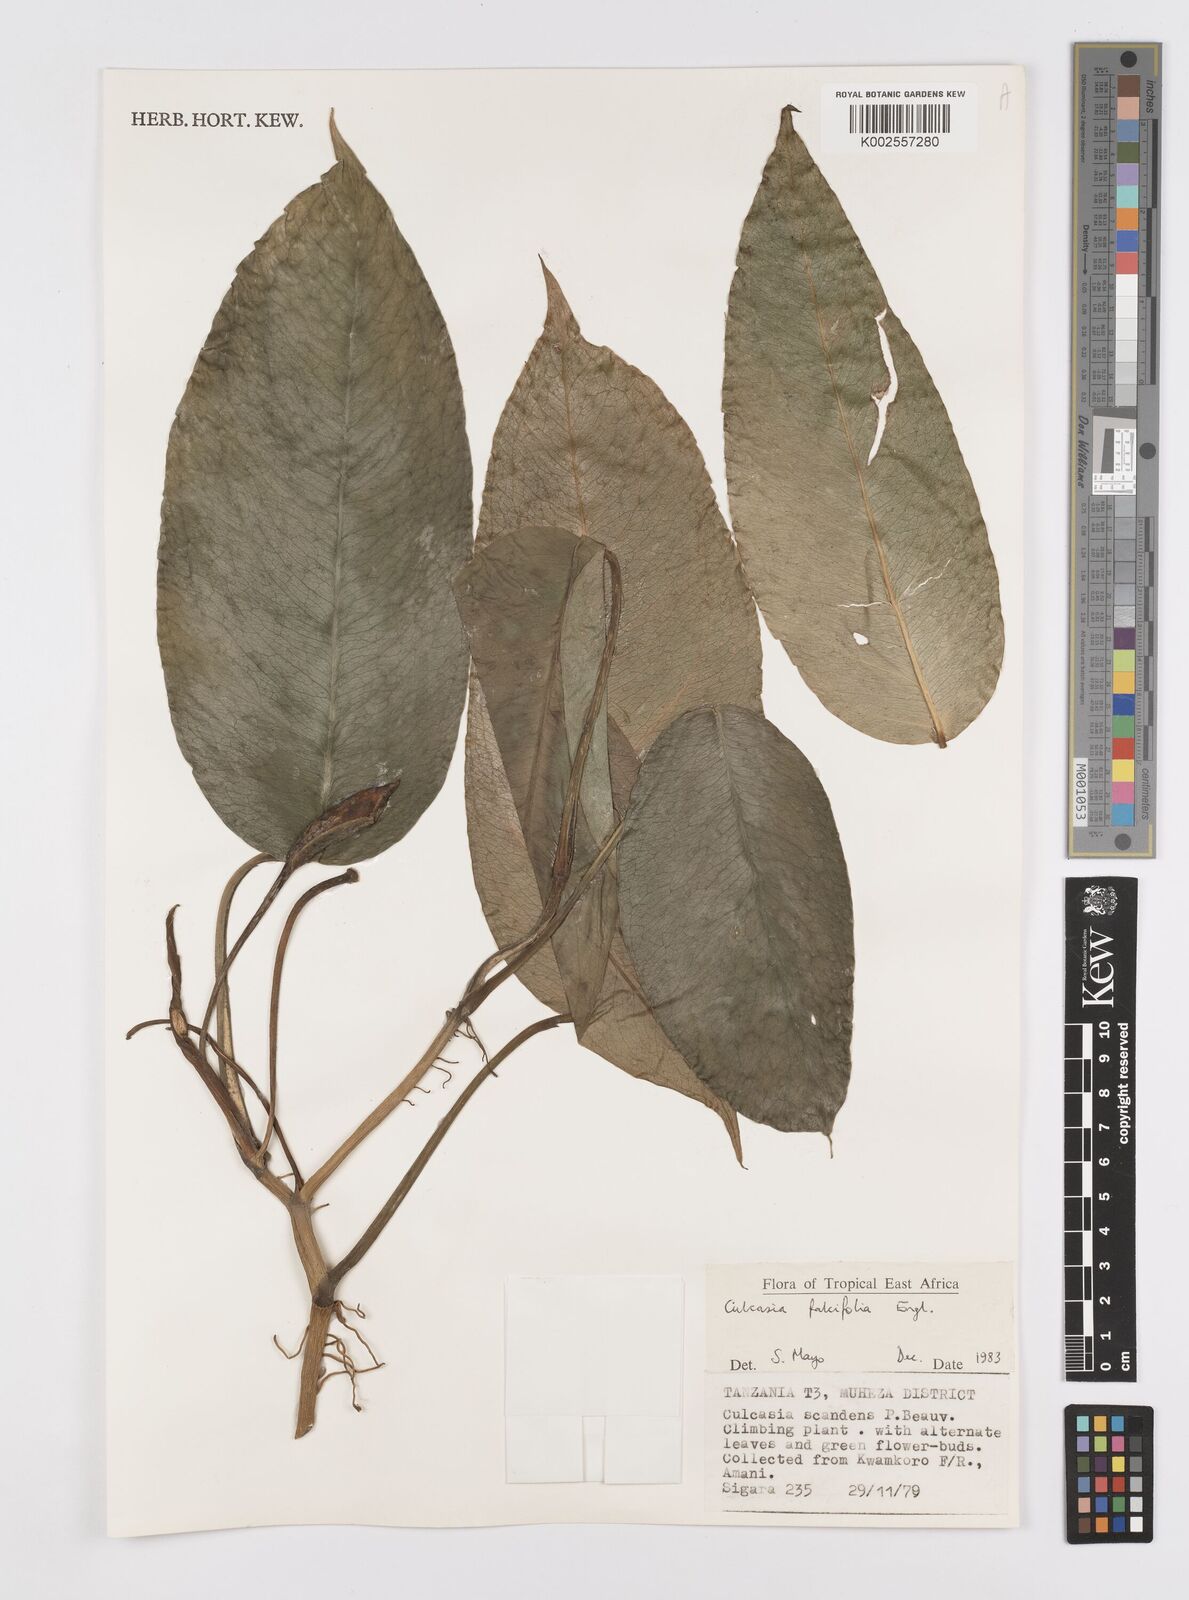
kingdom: Plantae
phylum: Tracheophyta
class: Liliopsida
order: Alismatales
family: Araceae
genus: Culcasia
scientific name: Culcasia falcifolia
